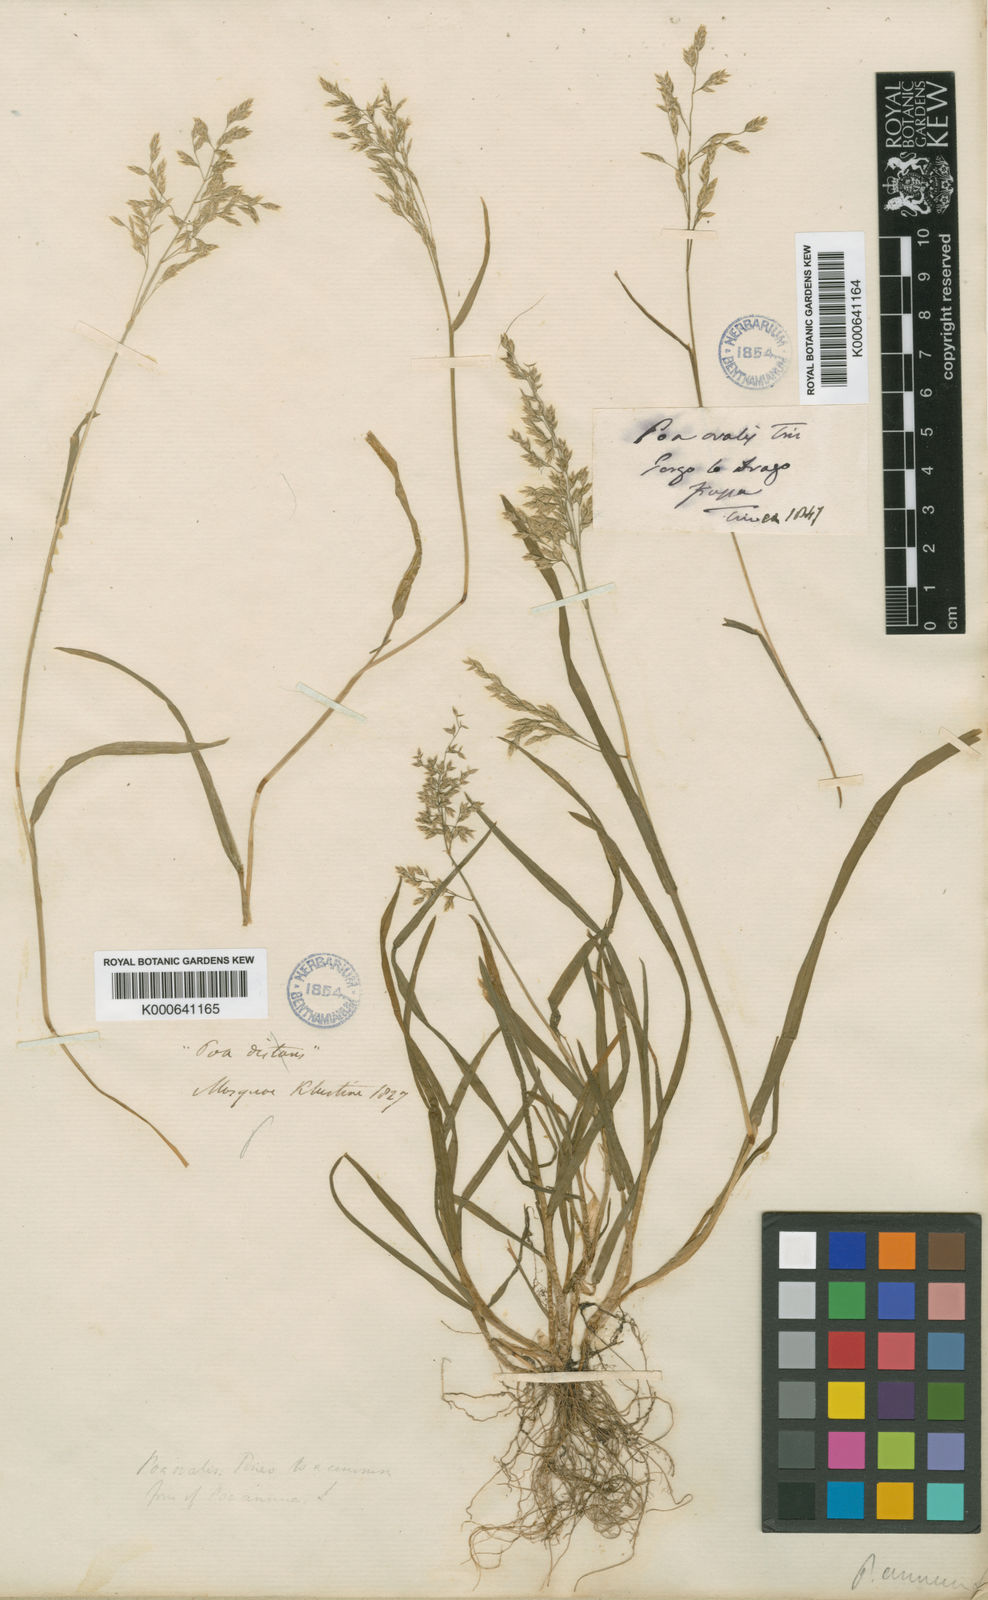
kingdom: Plantae
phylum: Tracheophyta
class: Liliopsida
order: Poales
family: Poaceae
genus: Poa
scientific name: Poa annua
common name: Annual bluegrass
